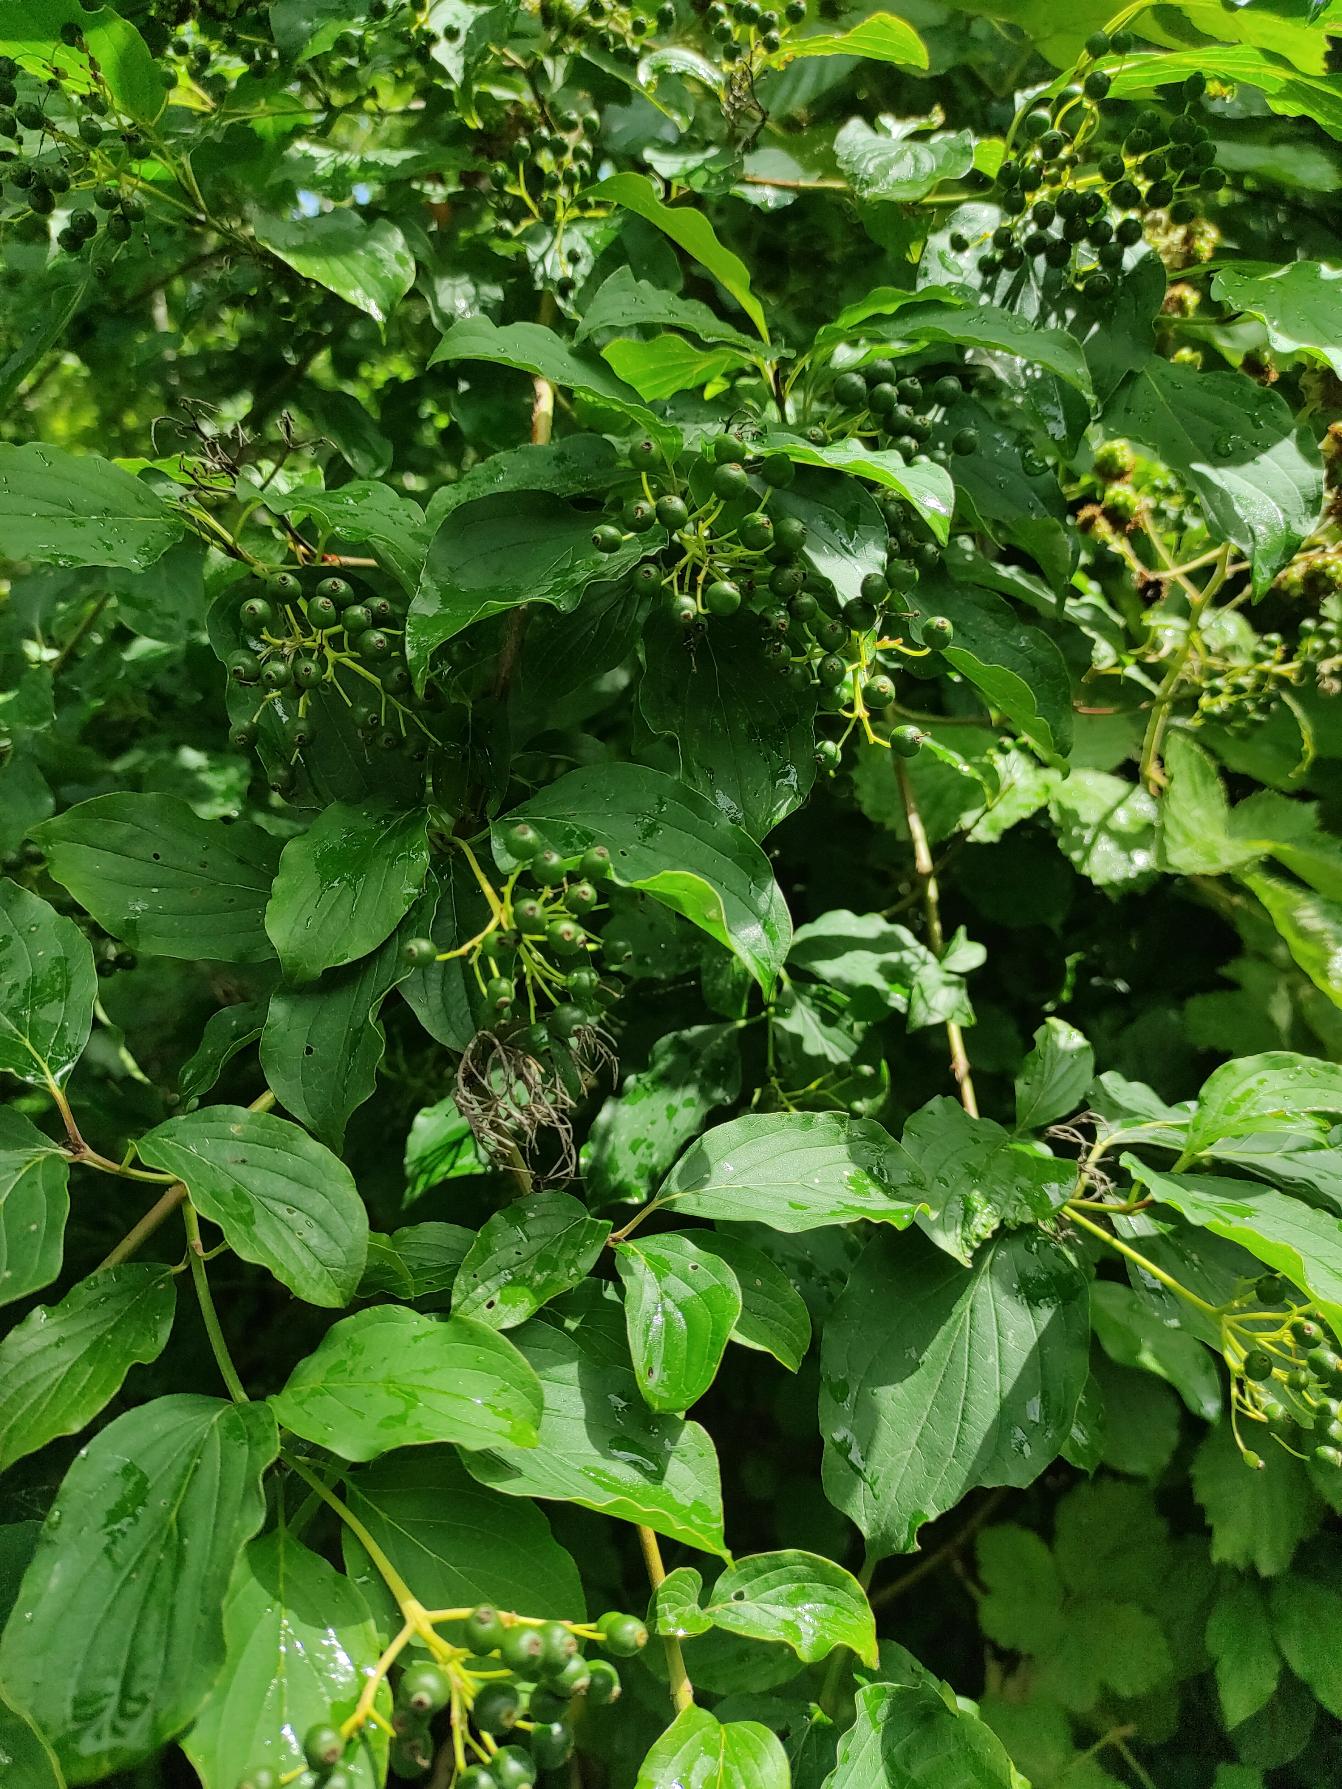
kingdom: Plantae
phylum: Tracheophyta
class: Magnoliopsida
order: Cornales
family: Cornaceae
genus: Cornus
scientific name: Cornus sanguinea
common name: Rød kornel
